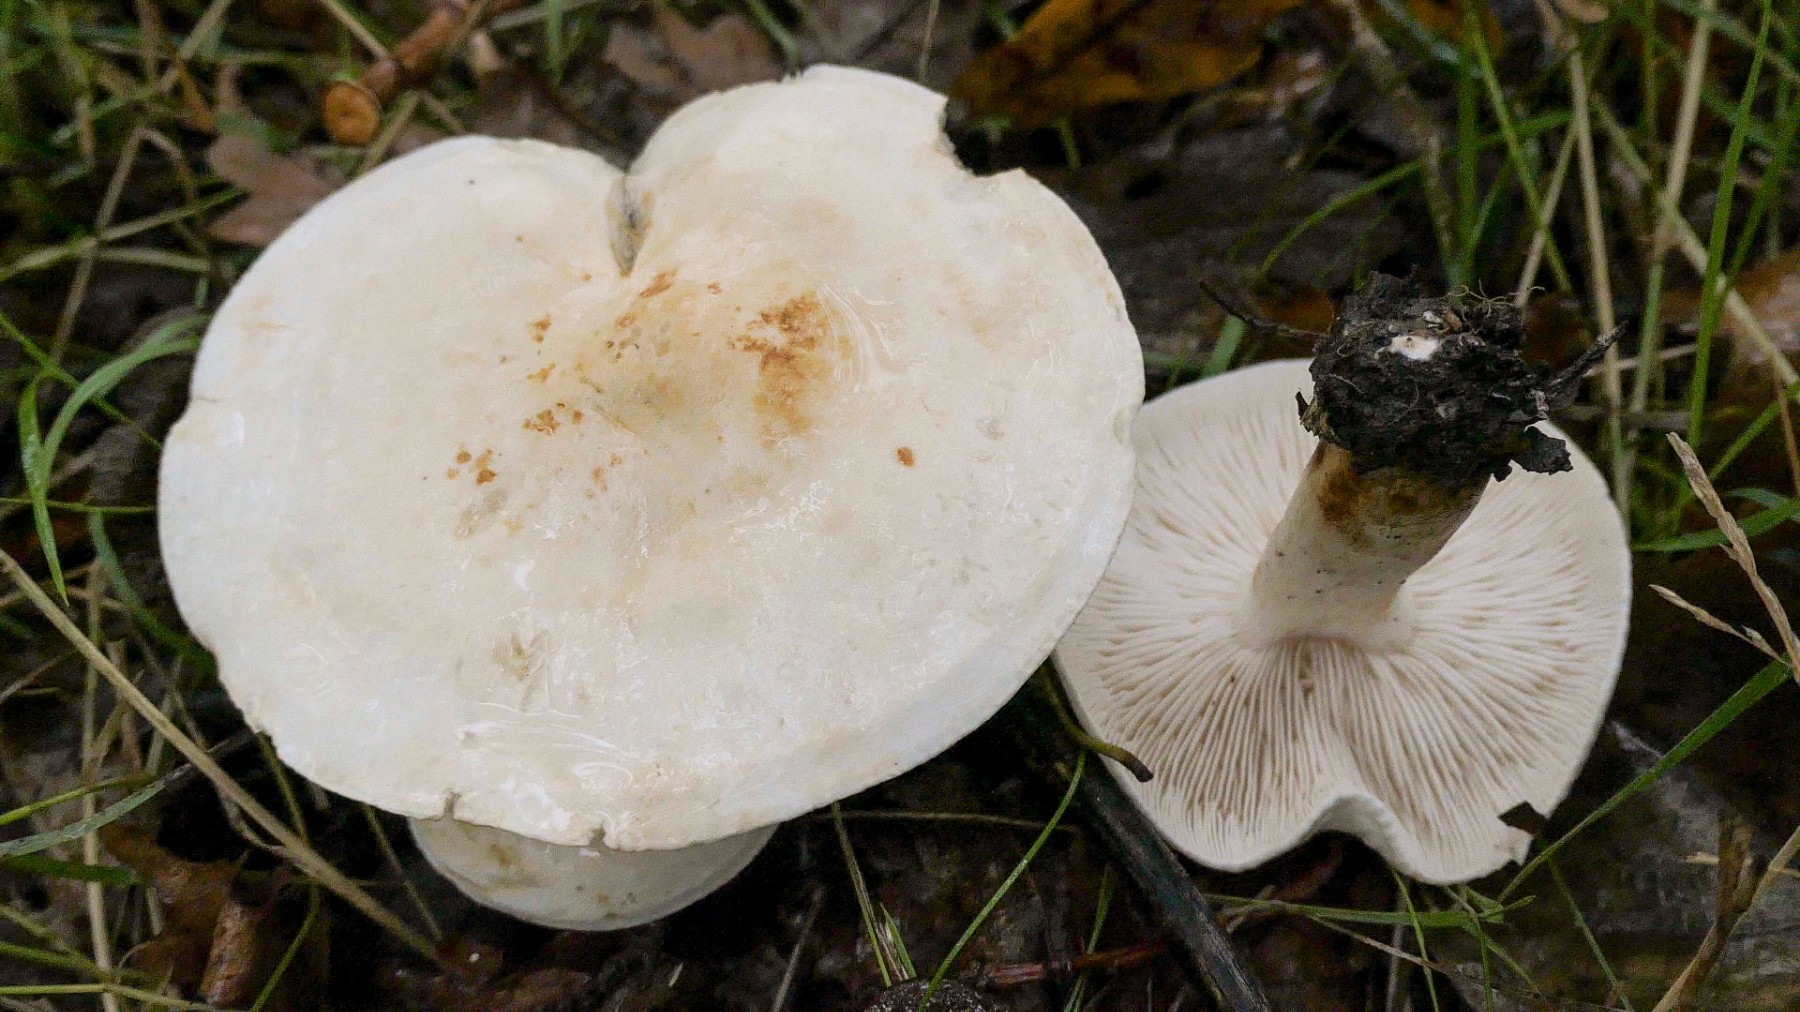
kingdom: Fungi
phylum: Basidiomycota
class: Agaricomycetes
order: Agaricales
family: Tricholomataceae
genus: Tricholoma
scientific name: Tricholoma stiparophyllum
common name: hvid ridderhat
